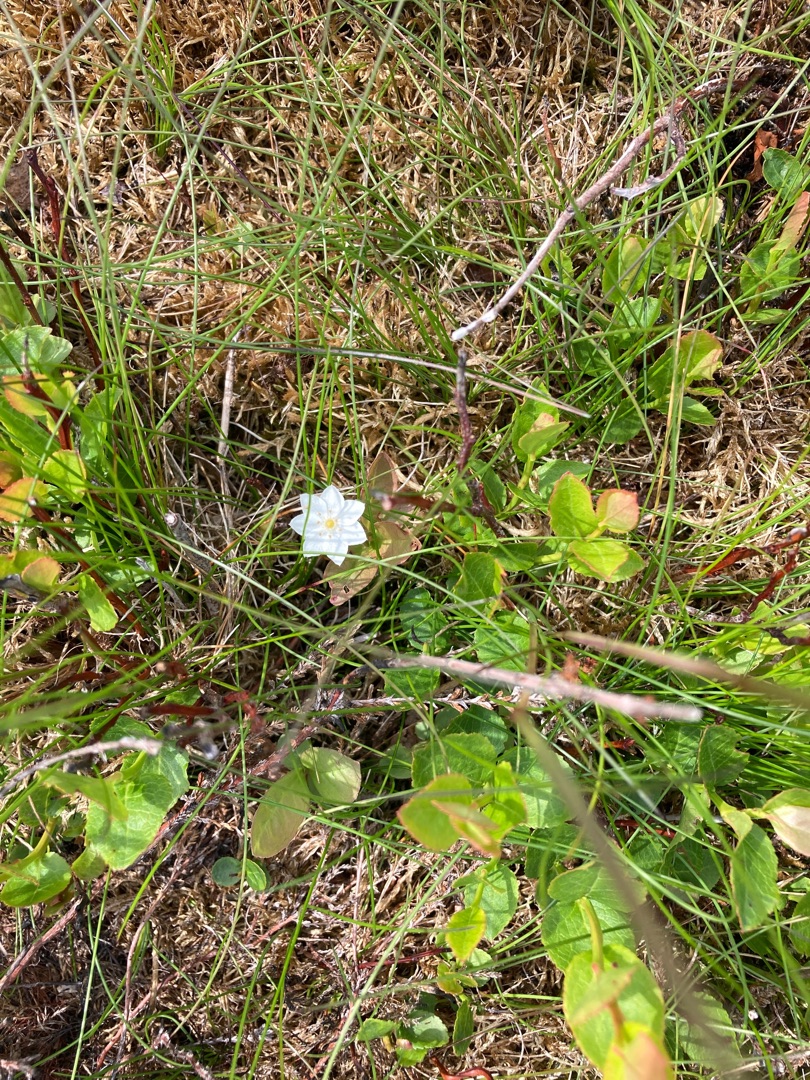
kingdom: Plantae
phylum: Tracheophyta
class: Magnoliopsida
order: Ericales
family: Primulaceae
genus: Lysimachia
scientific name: Lysimachia europaea
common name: Skovstjerne
